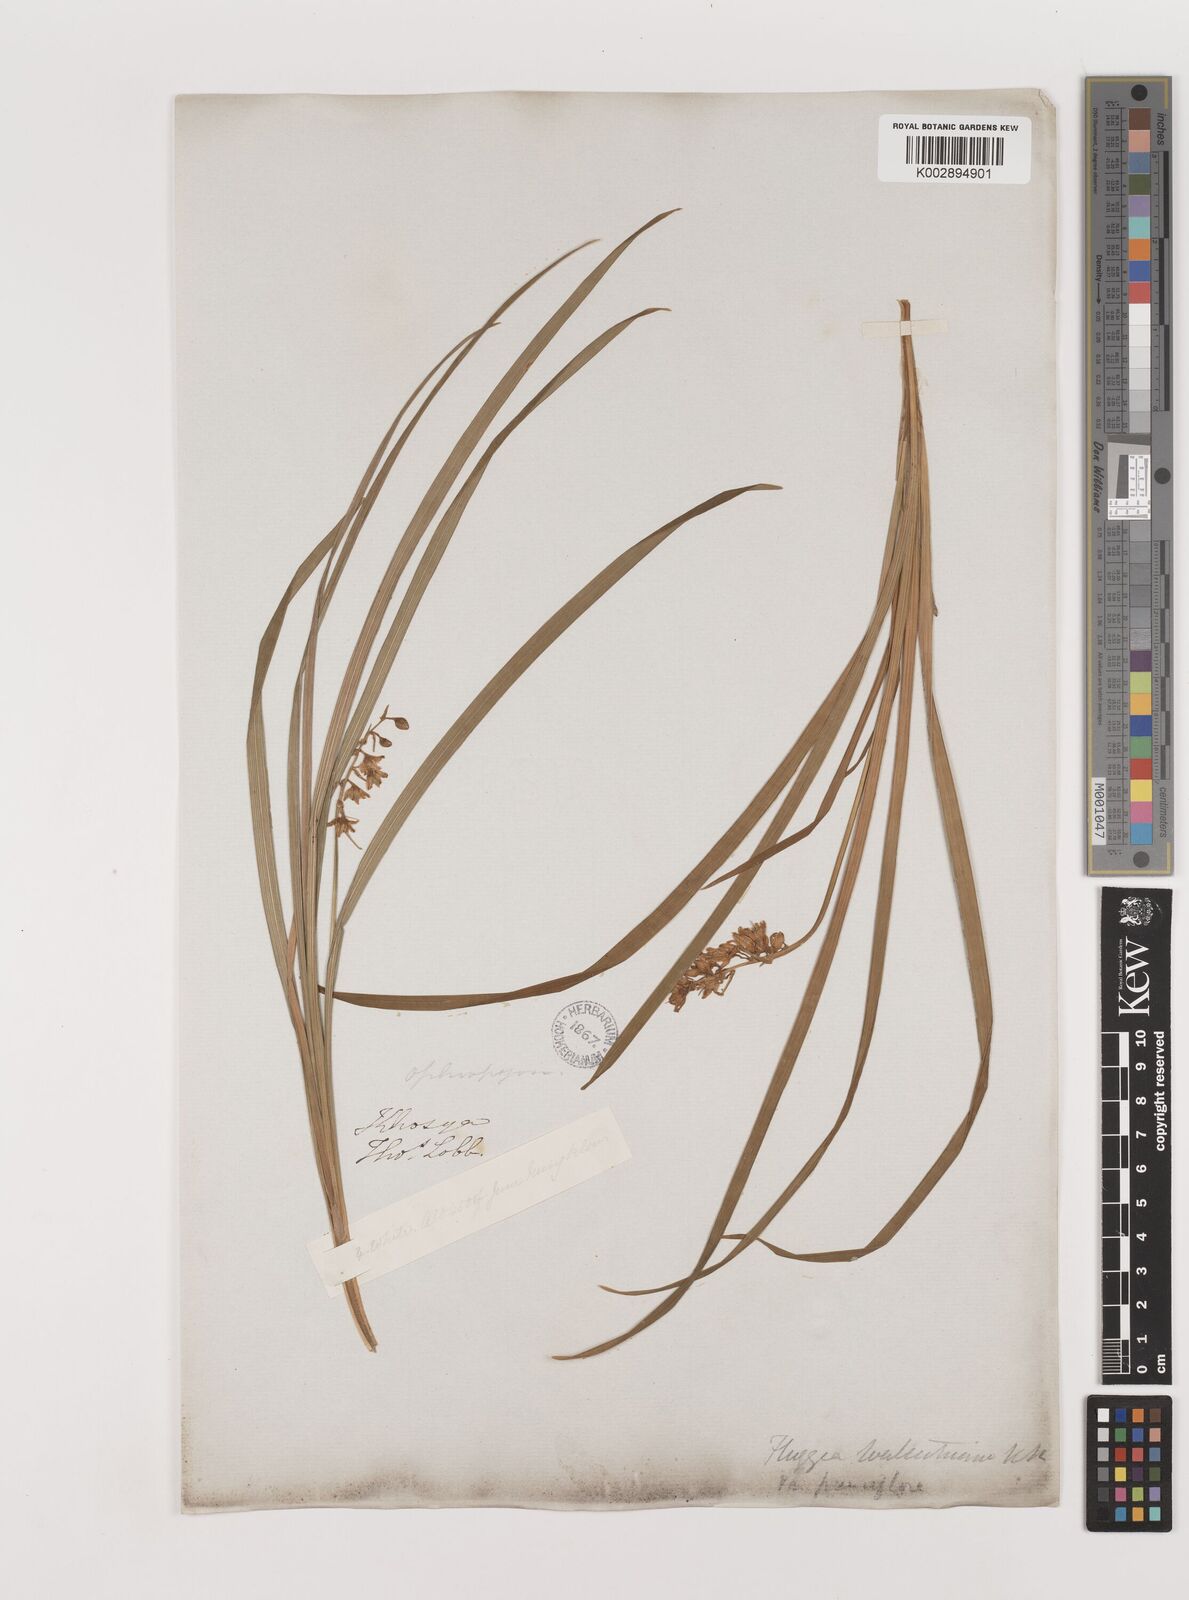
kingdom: Plantae
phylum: Tracheophyta
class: Liliopsida
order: Asparagales
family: Asparagaceae
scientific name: Asparagaceae
